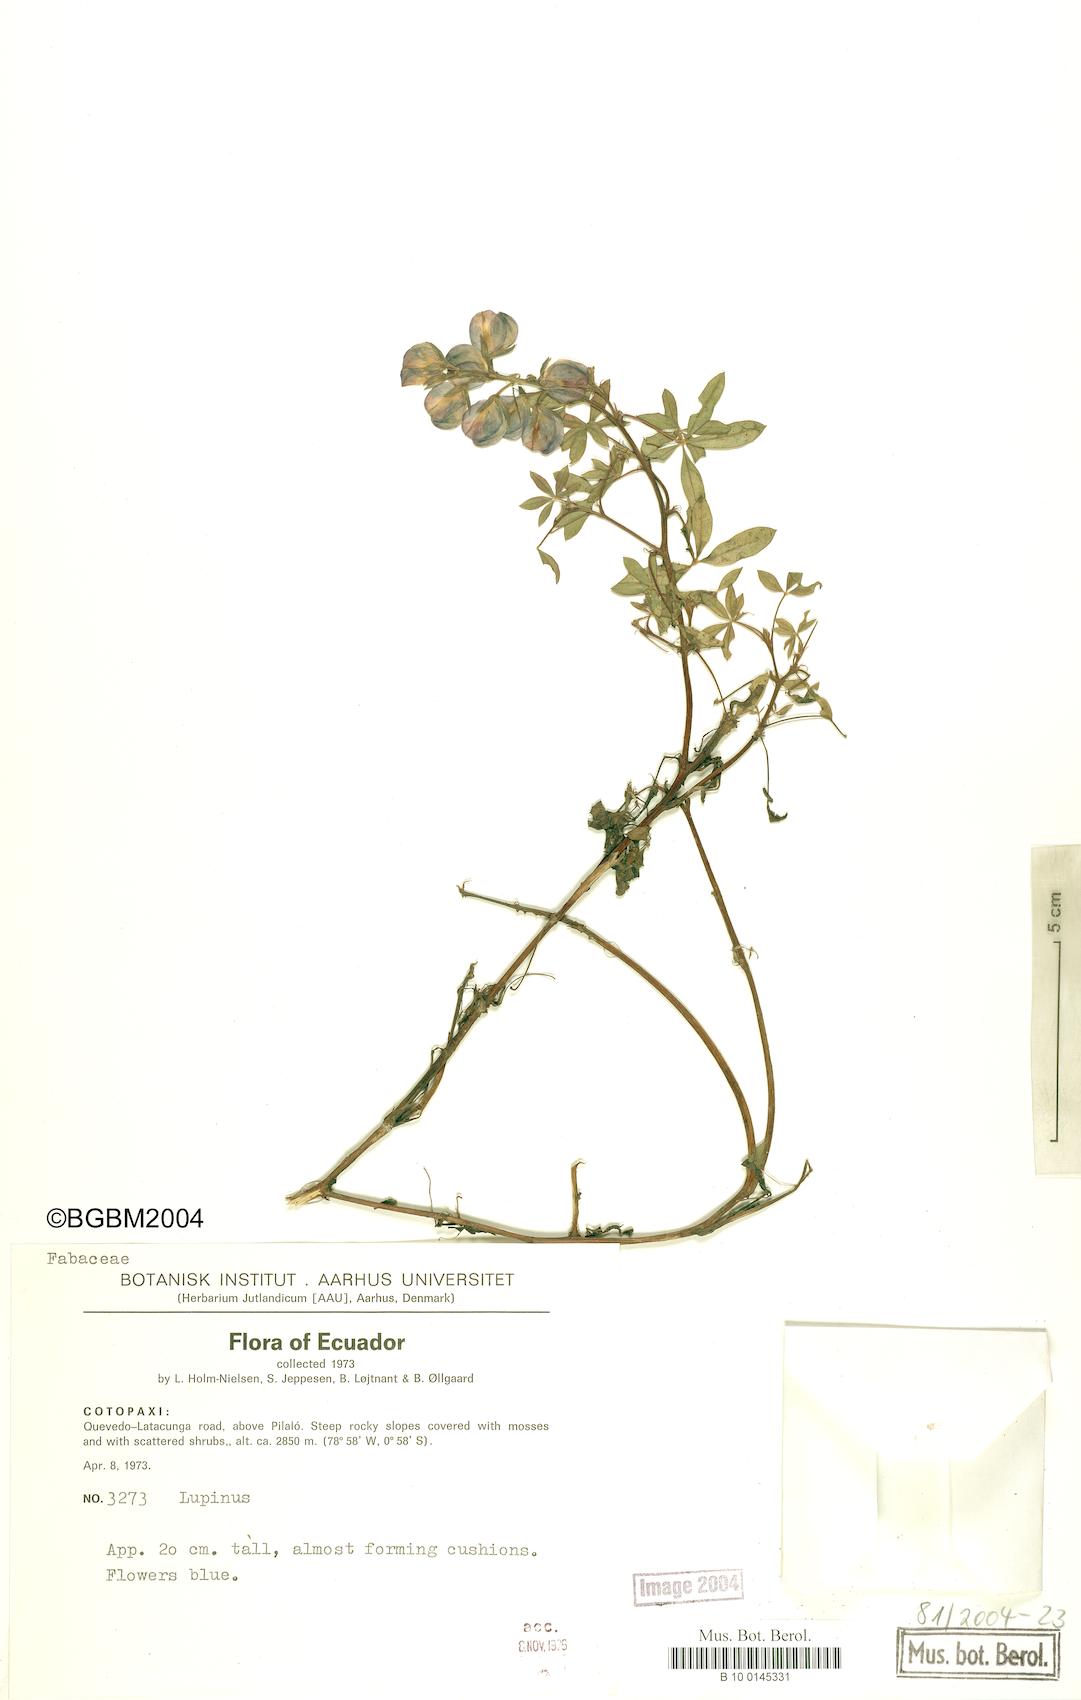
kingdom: Plantae
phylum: Tracheophyta
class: Magnoliopsida
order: Fabales
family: Fabaceae
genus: Lupinus
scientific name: Lupinus
